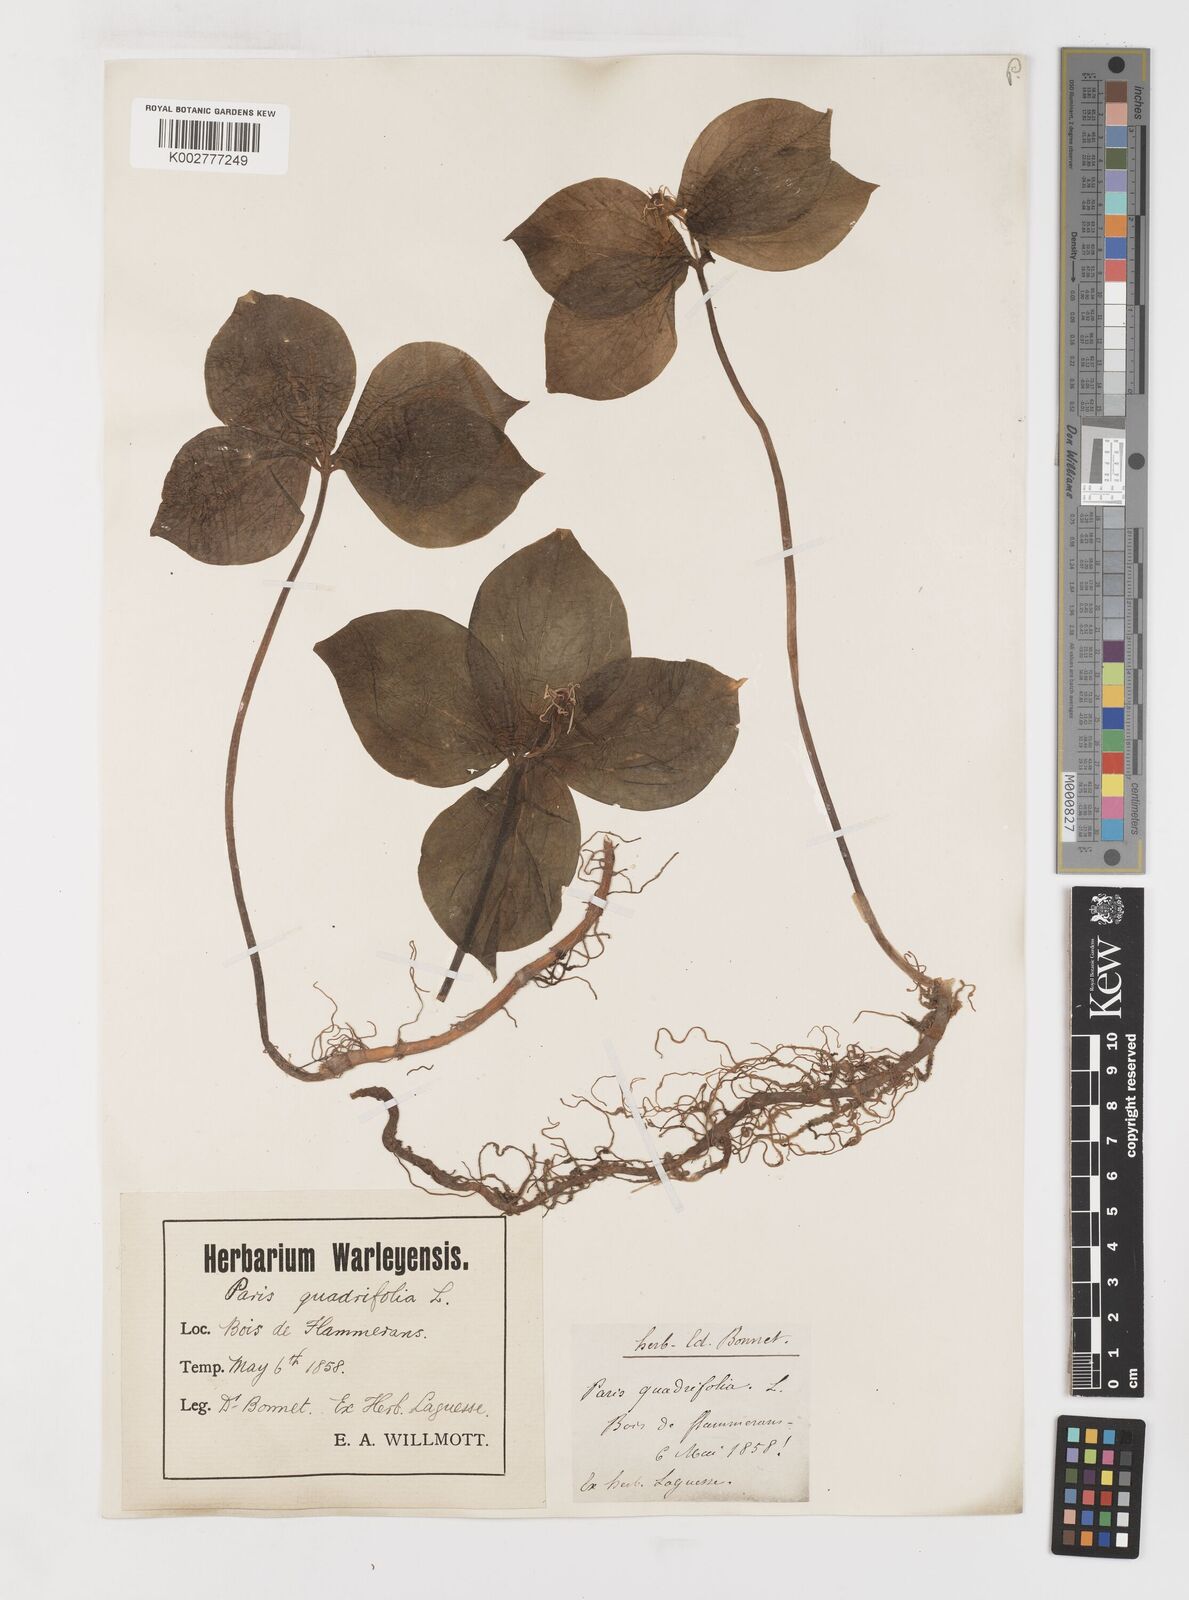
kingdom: Plantae
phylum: Tracheophyta
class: Liliopsida
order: Liliales
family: Melanthiaceae
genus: Paris
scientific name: Paris
